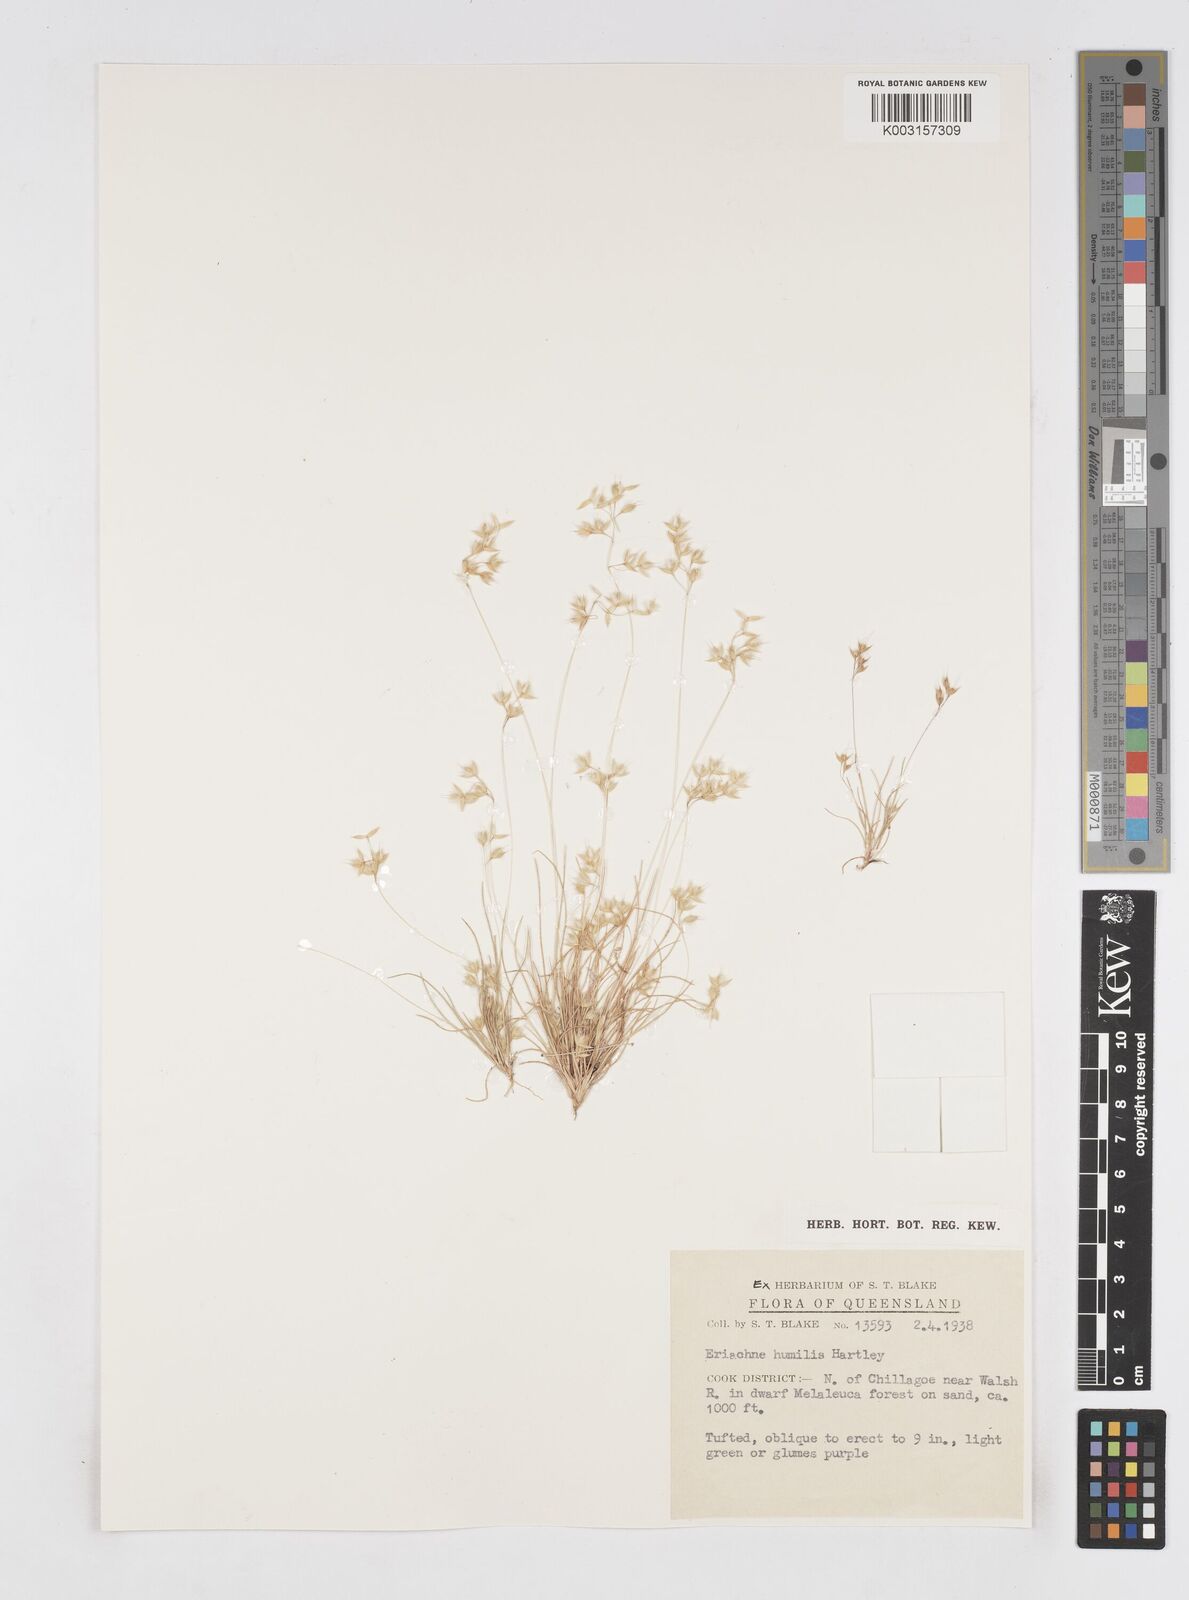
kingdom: Plantae
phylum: Tracheophyta
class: Liliopsida
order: Poales
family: Poaceae
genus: Eriachne
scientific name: Eriachne humilis
